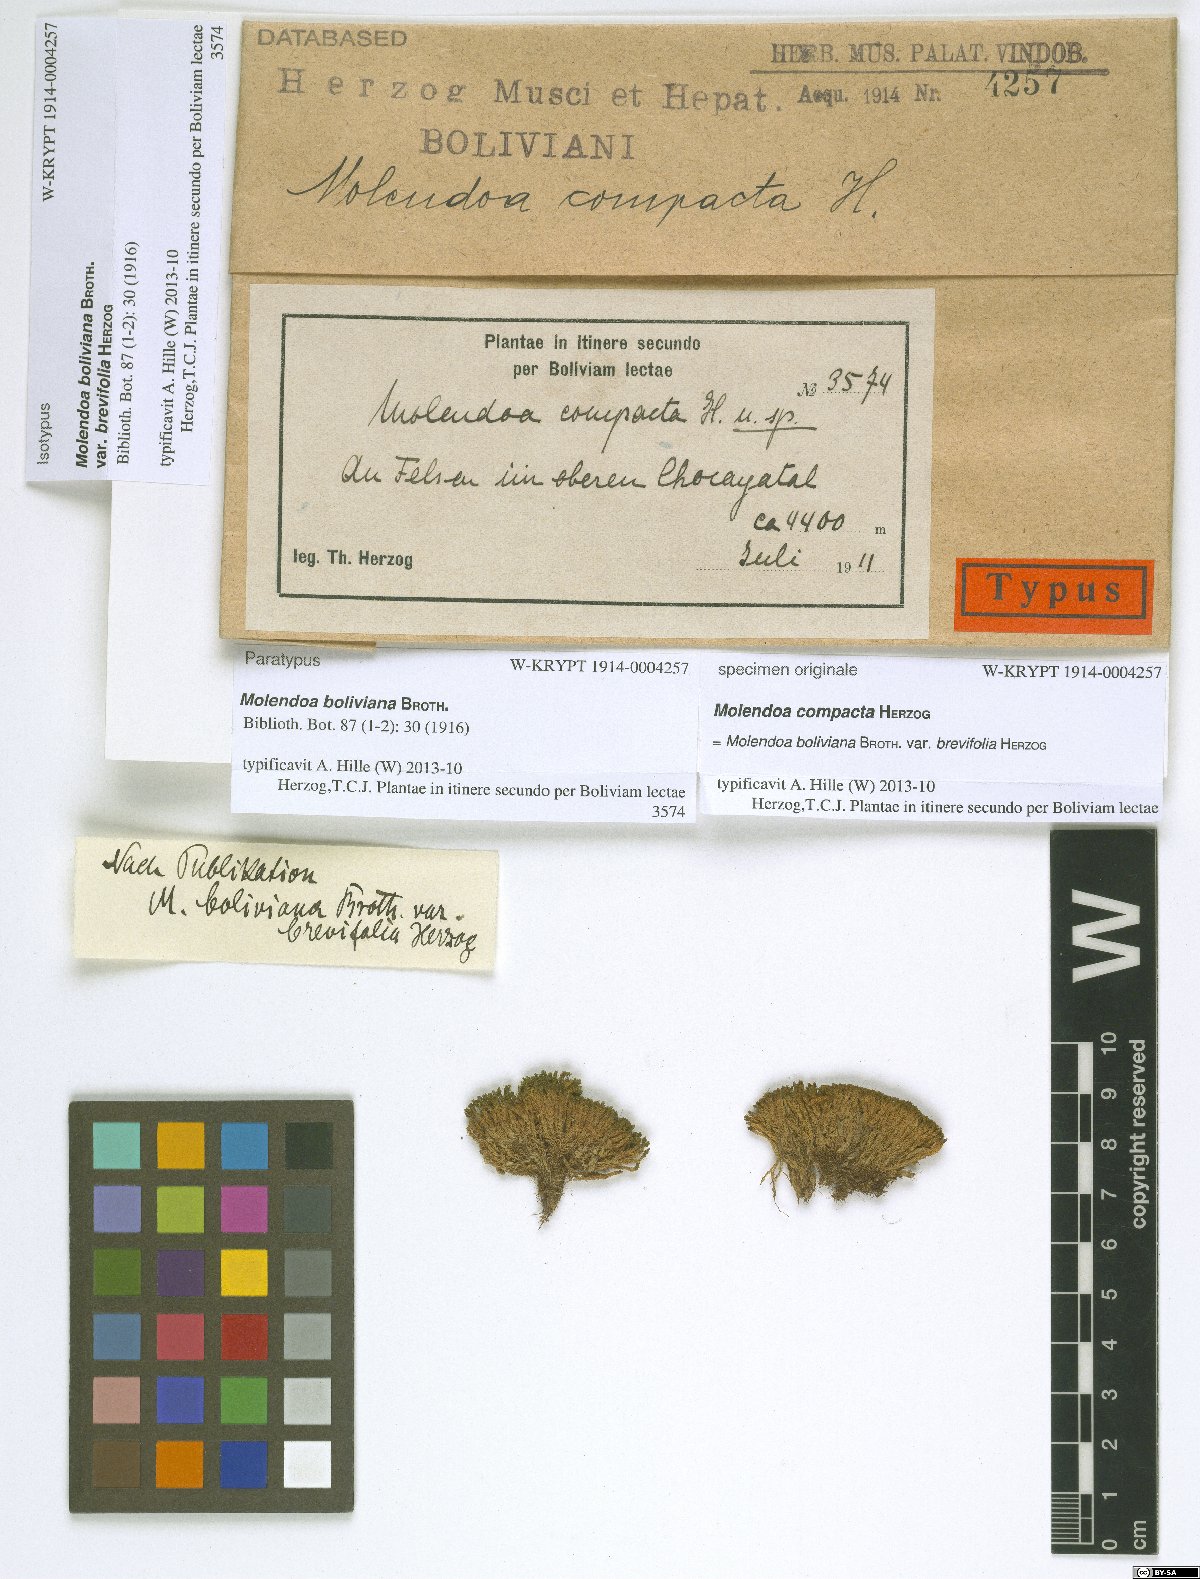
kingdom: Plantae
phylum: Bryophyta
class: Bryopsida
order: Pottiales
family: Pottiaceae
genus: Molendoa
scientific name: Molendoa sendtneriana
